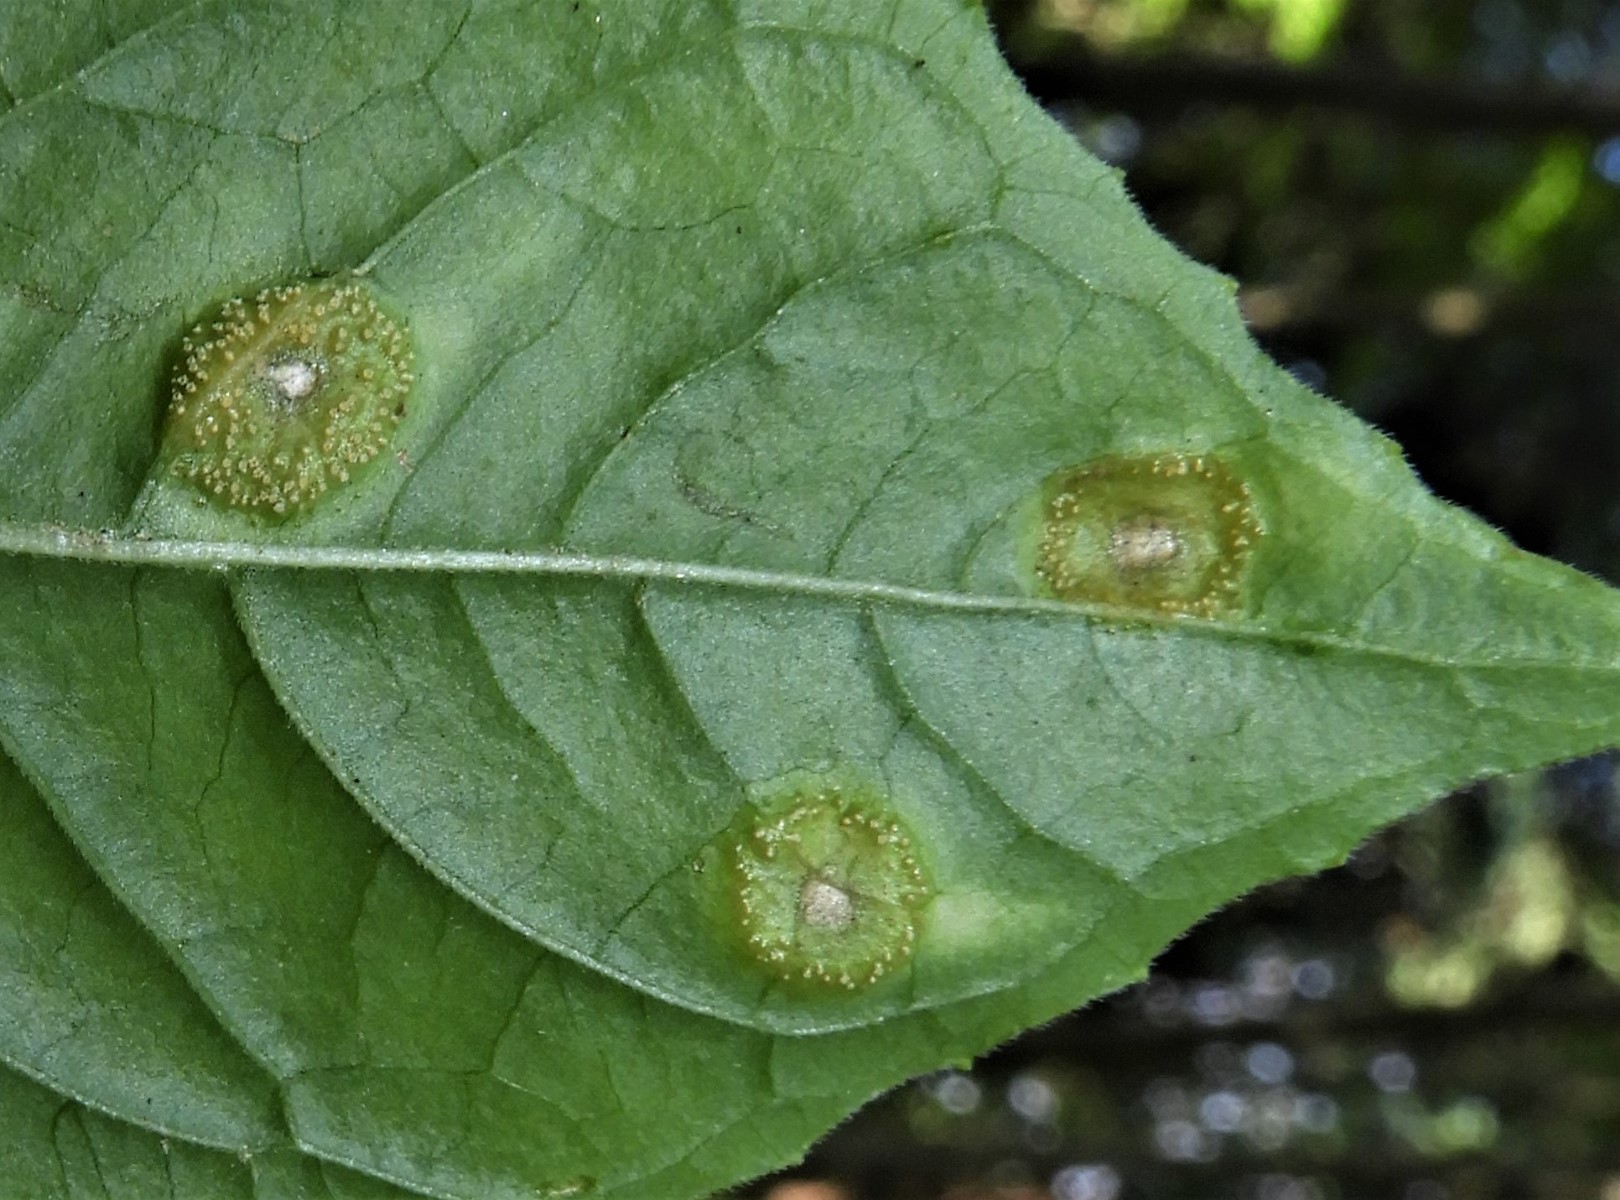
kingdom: Fungi
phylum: Basidiomycota
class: Pucciniomycetes
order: Pucciniales
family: Pucciniaceae
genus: Puccinia
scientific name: Puccinia circaeae-caricis
